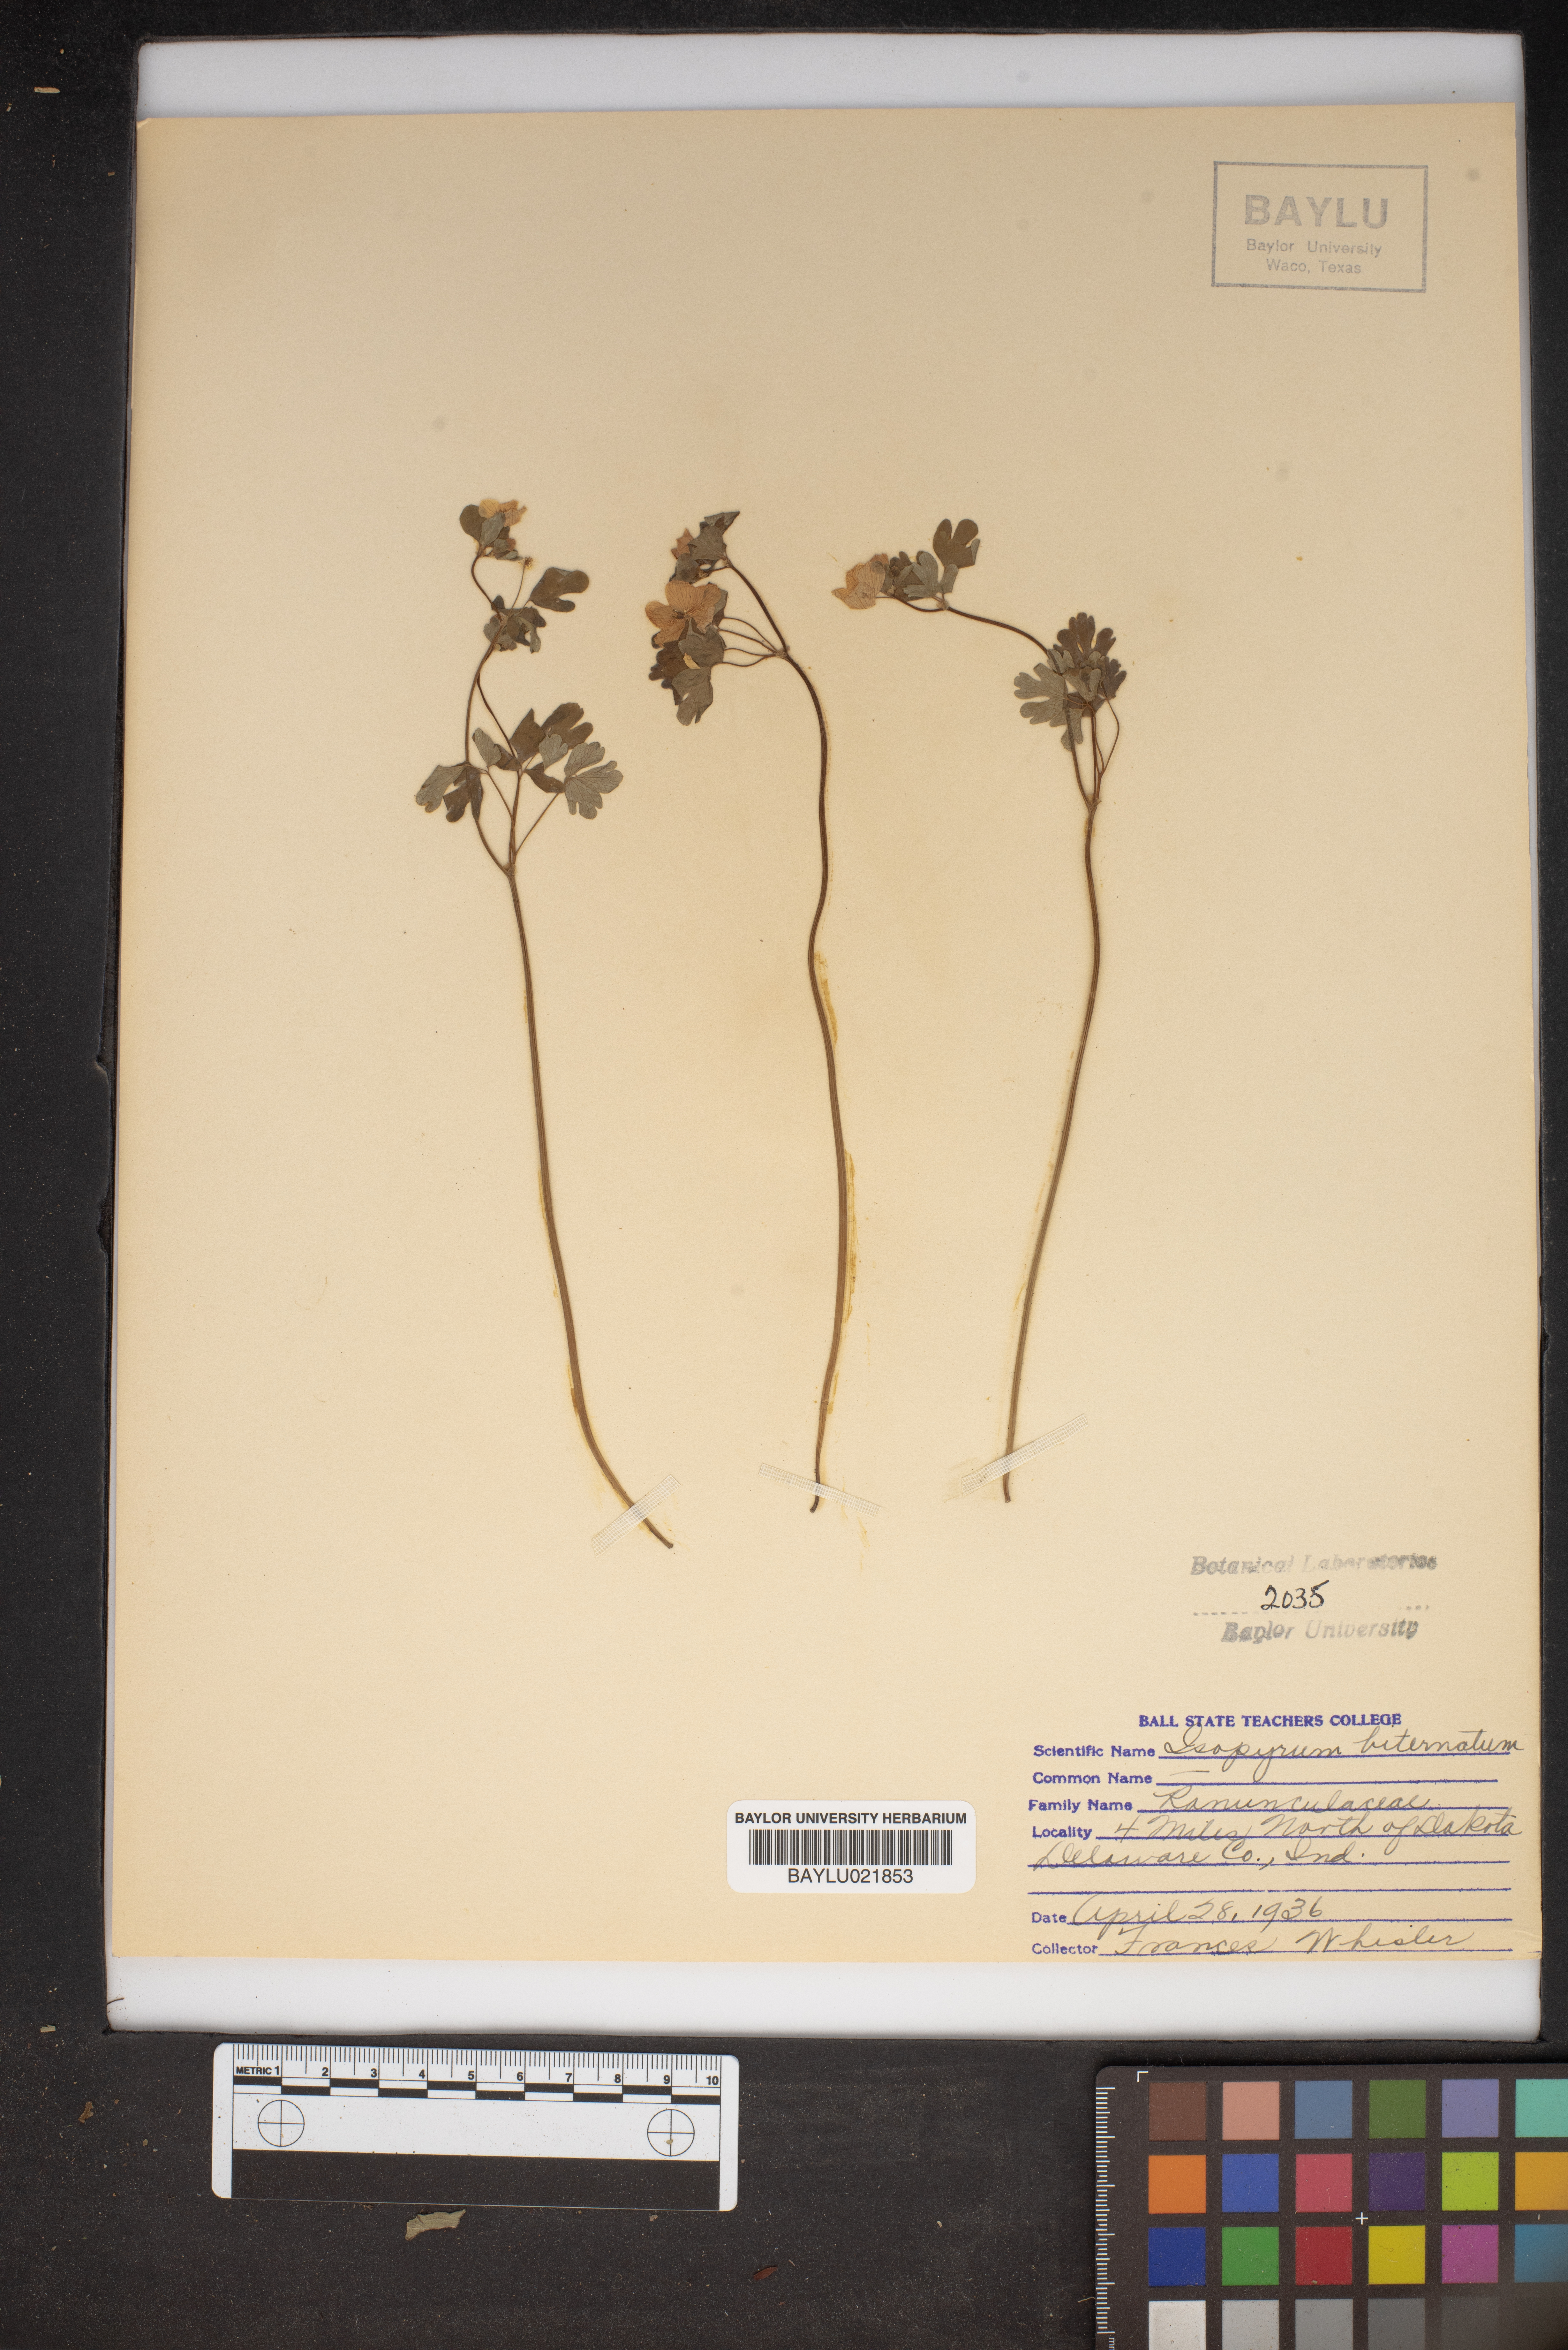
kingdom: Plantae
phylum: Tracheophyta
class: Magnoliopsida
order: Ranunculales
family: Ranunculaceae
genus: Enemion
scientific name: Enemion biternatum
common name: Eastern false rue-anemone
